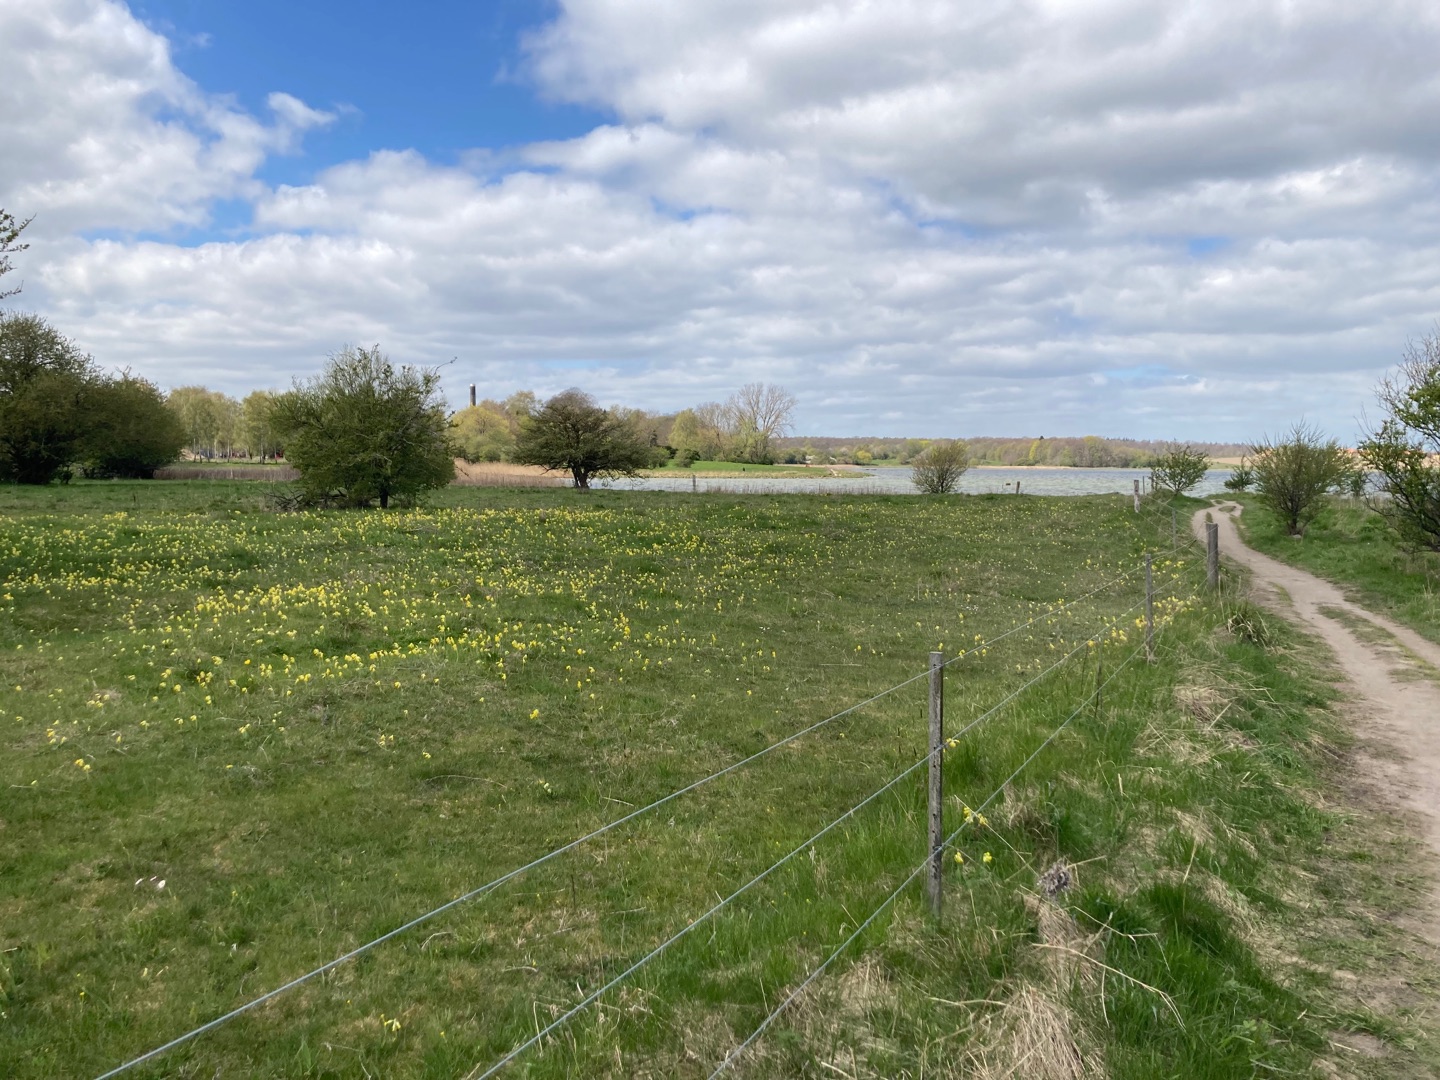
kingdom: Plantae
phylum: Tracheophyta
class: Magnoliopsida
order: Ericales
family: Primulaceae
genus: Primula
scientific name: Primula veris
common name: Hulkravet kodriver
